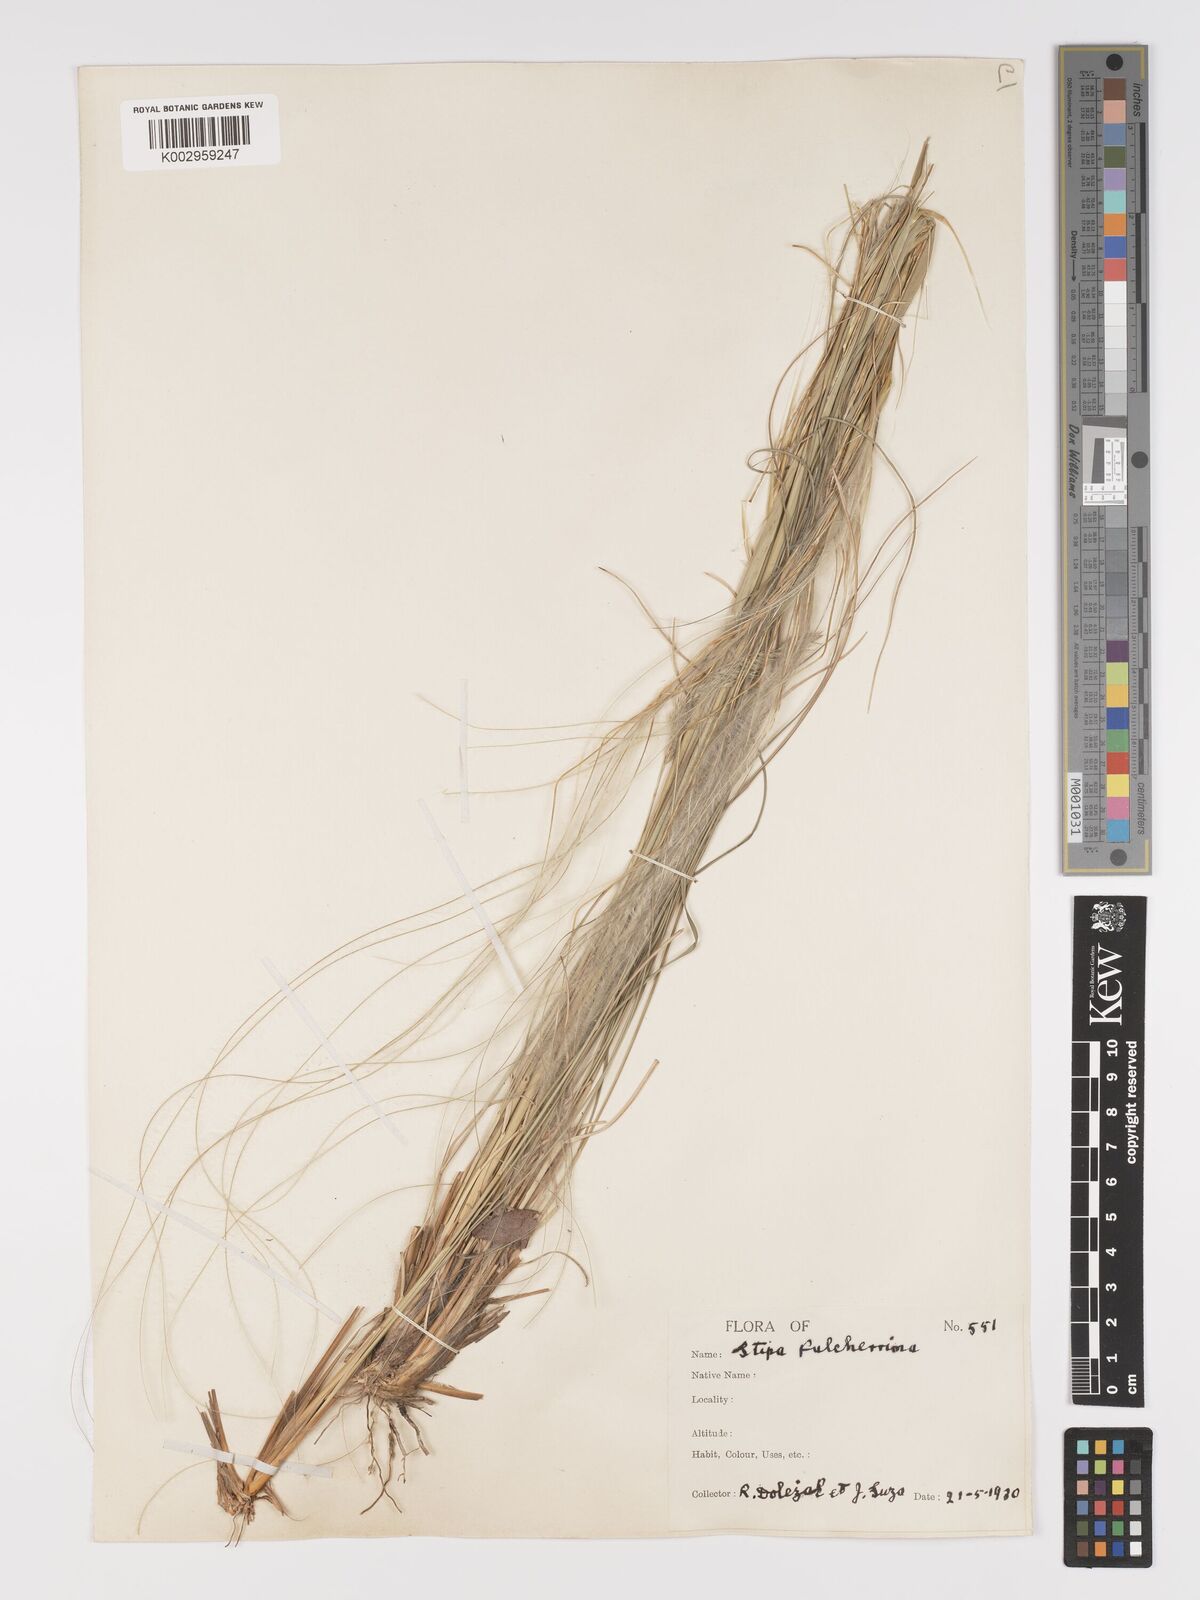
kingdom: Plantae
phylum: Tracheophyta
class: Liliopsida
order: Poales
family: Poaceae
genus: Stipa
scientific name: Stipa pulcherrima
